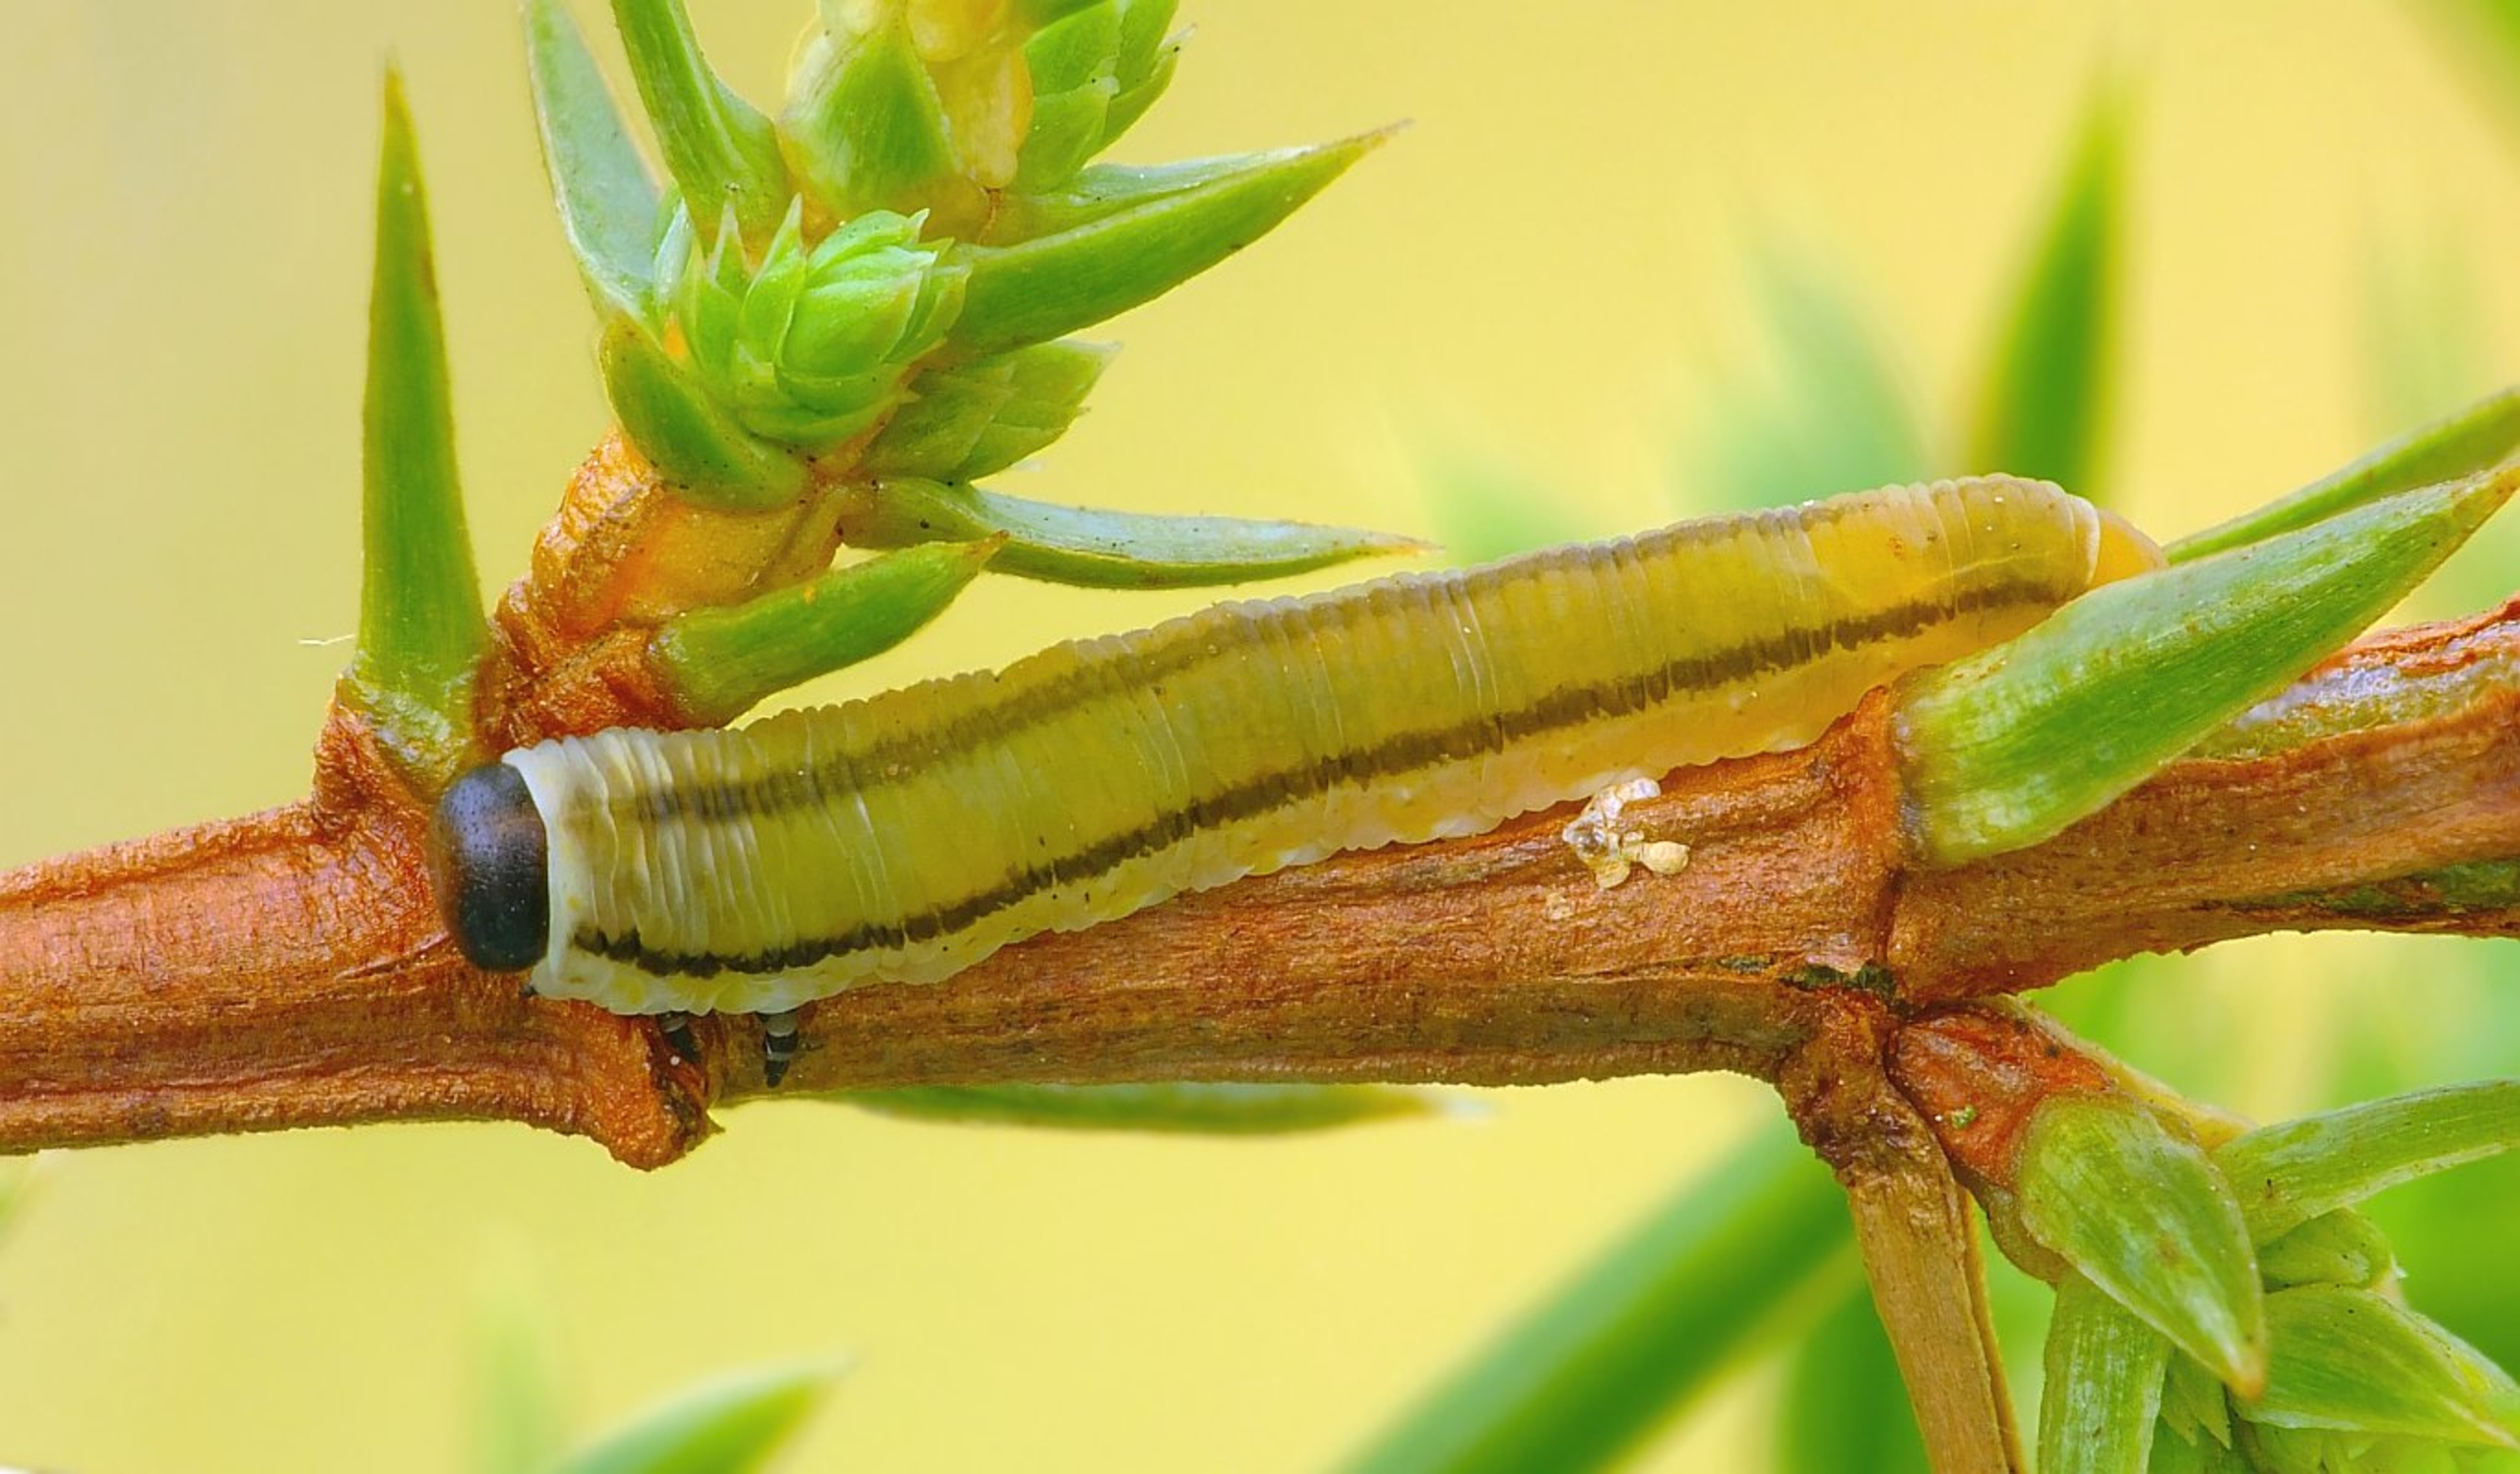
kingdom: Animalia
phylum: Arthropoda
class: Insecta
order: Hymenoptera
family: Diprionidae
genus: Monoctenus
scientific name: Monoctenus juniperi
